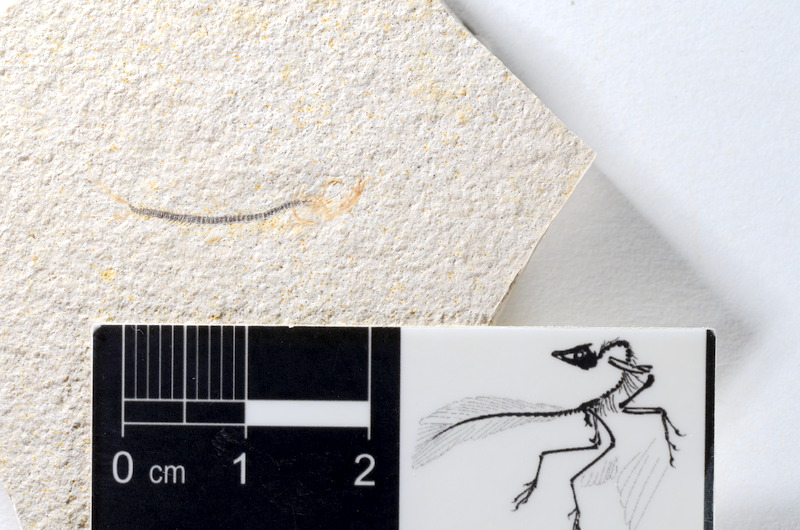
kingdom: Animalia
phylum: Chordata
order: Salmoniformes
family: Orthogonikleithridae
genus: Orthogonikleithrus
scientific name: Orthogonikleithrus hoelli
